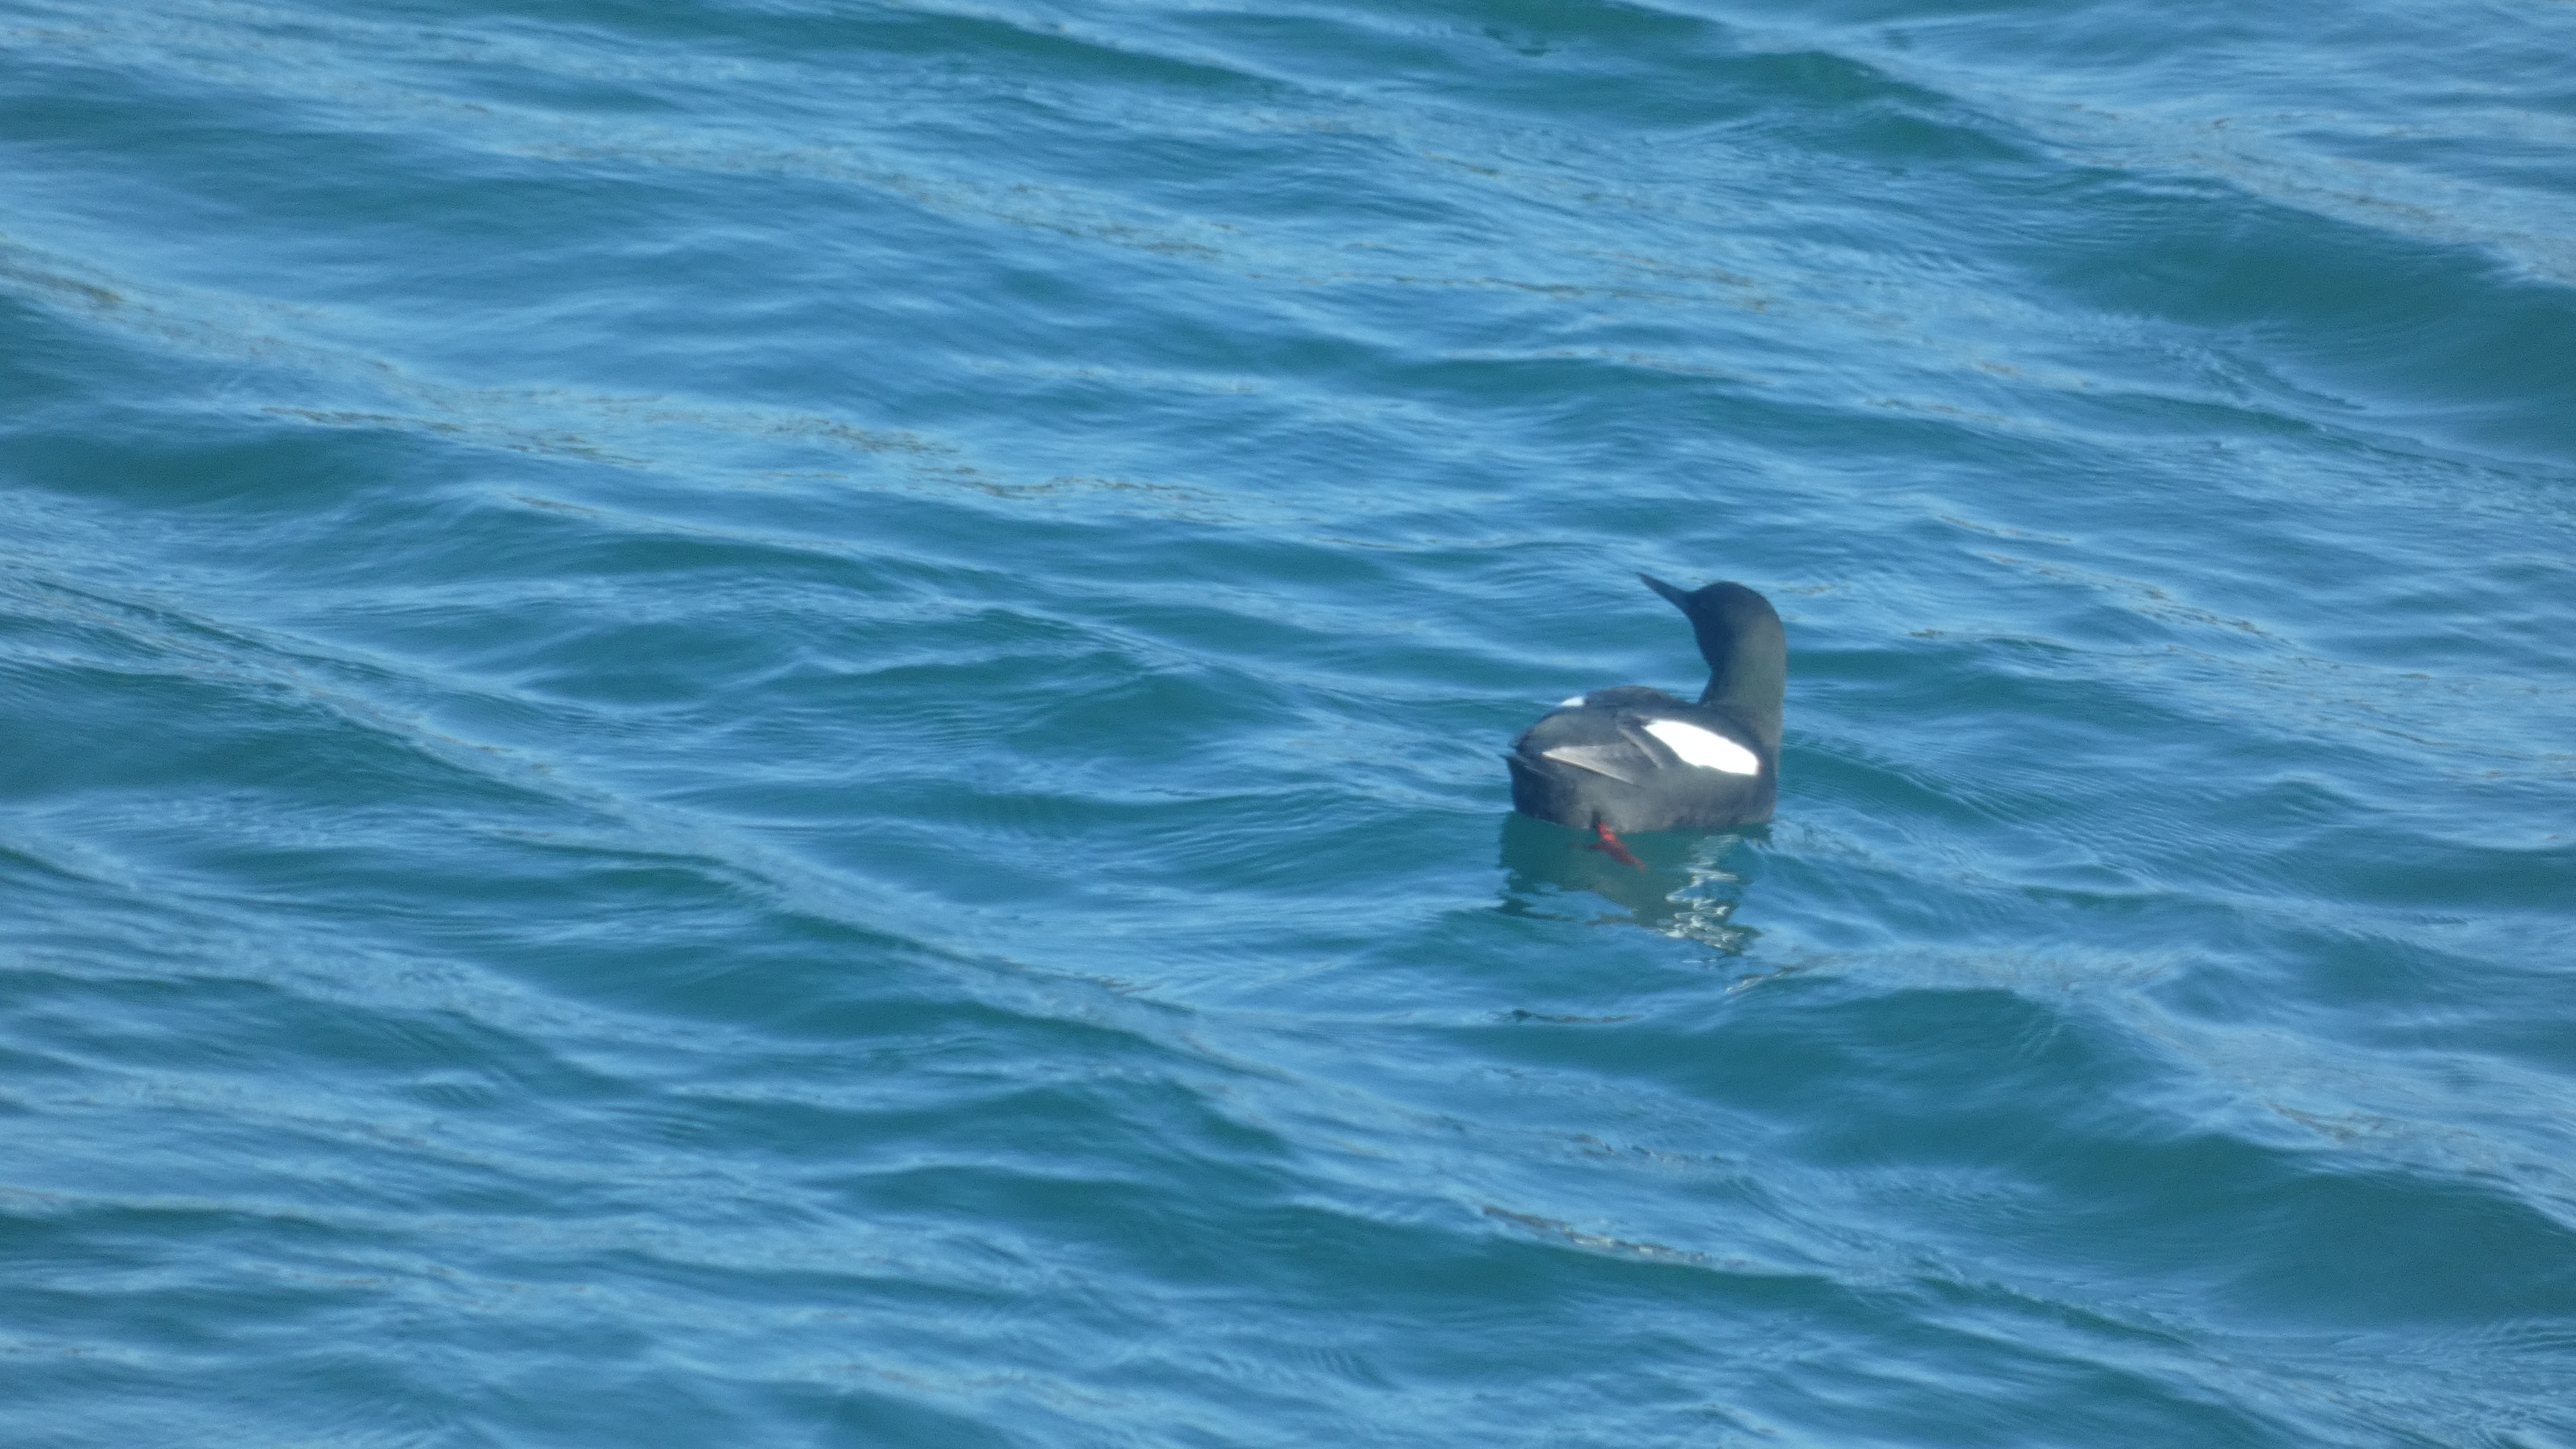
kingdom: Animalia
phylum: Chordata
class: Aves
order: Charadriiformes
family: Alcidae
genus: Cepphus
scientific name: Cepphus grylle
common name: Tejst
